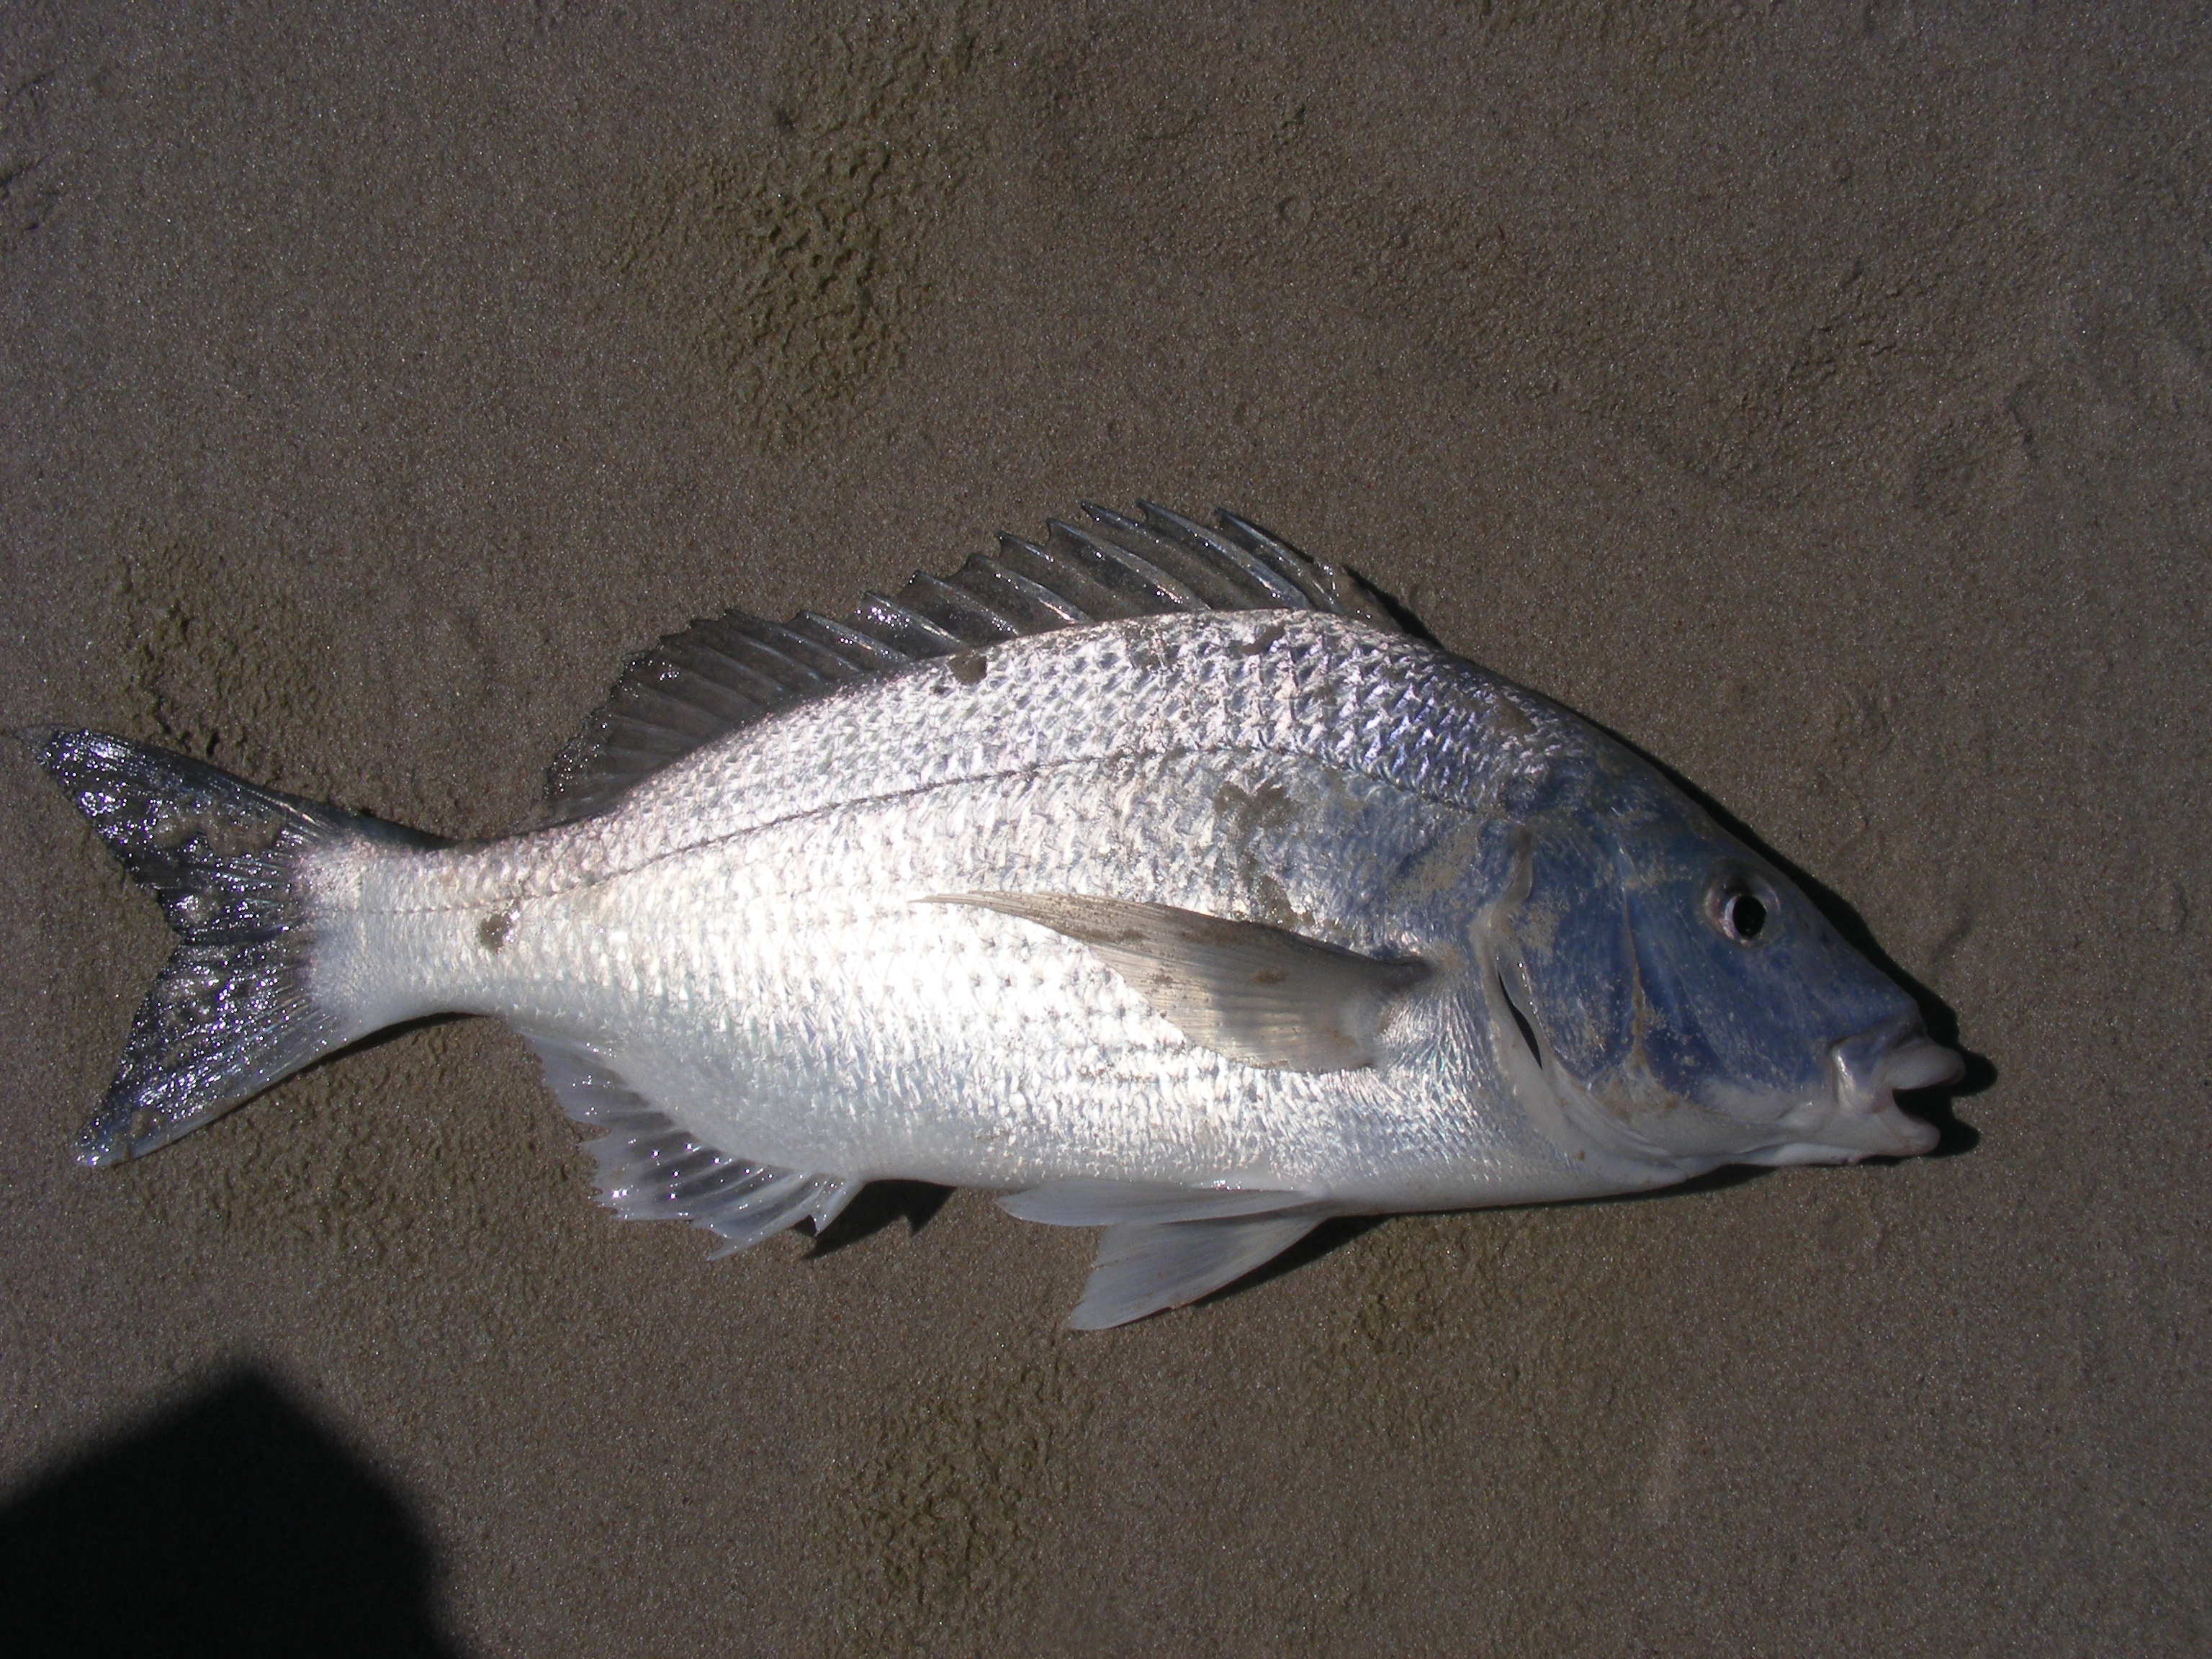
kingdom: Animalia
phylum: Chordata
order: Perciformes
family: Sparidae
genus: Lithognathus
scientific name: Lithognathus lithognathus
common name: White steenbras
